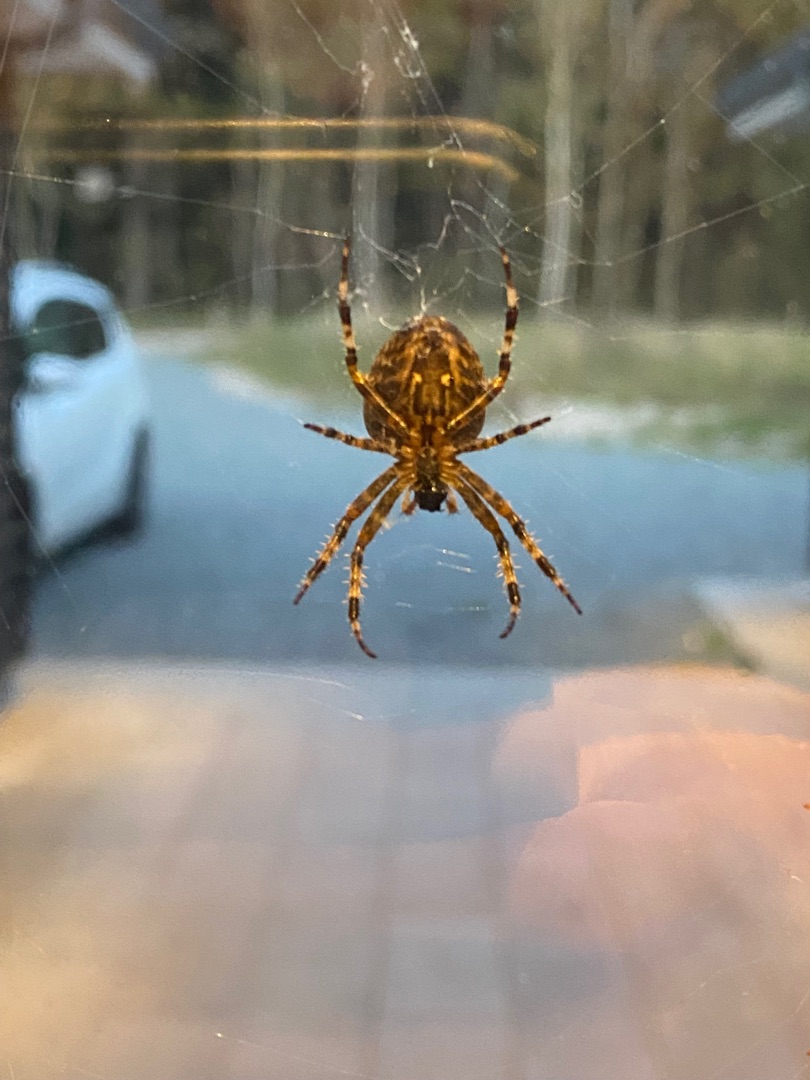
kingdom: Animalia
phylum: Arthropoda
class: Arachnida
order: Araneae
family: Araneidae
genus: Araneus
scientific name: Araneus diadematus
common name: Korsedderkop
